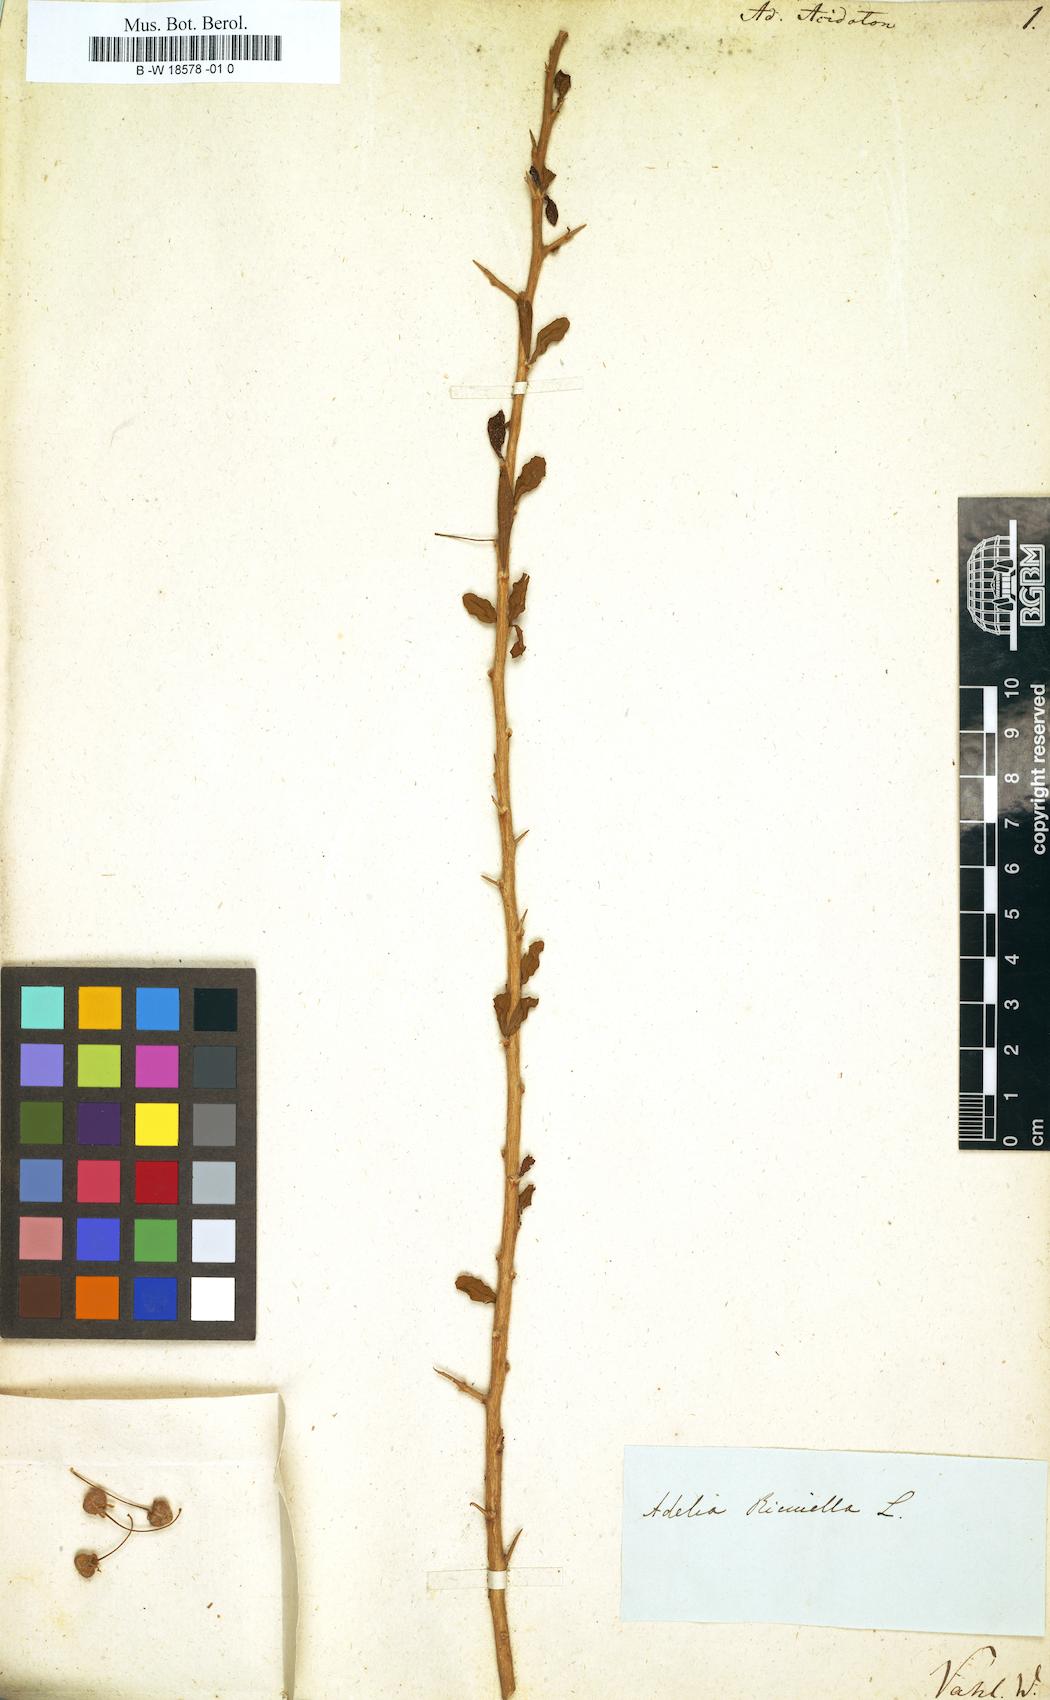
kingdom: Plantae
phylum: Tracheophyta
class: Magnoliopsida
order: Malpighiales
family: Euphorbiaceae
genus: Doryxylon
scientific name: Doryxylon spinosum
